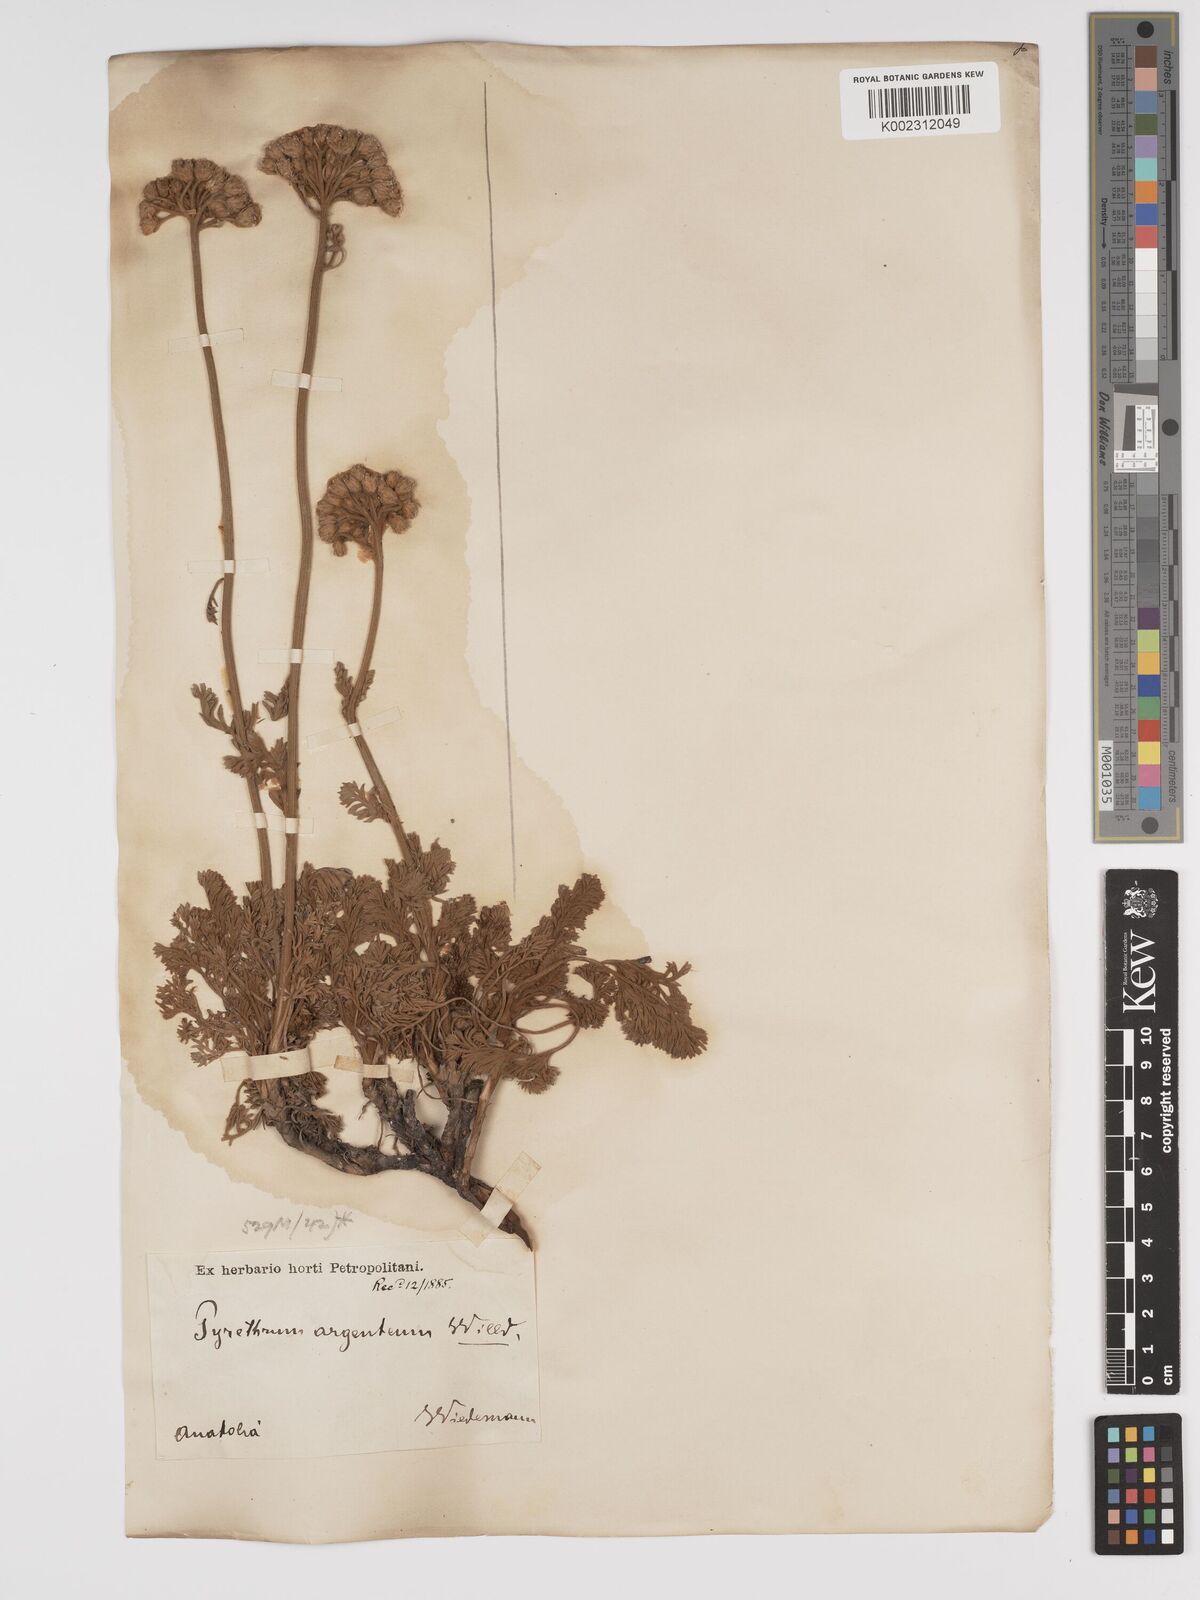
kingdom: Plantae
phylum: Tracheophyta
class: Magnoliopsida
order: Asterales
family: Asteraceae
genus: Tanacetum
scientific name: Tanacetum argenteum
